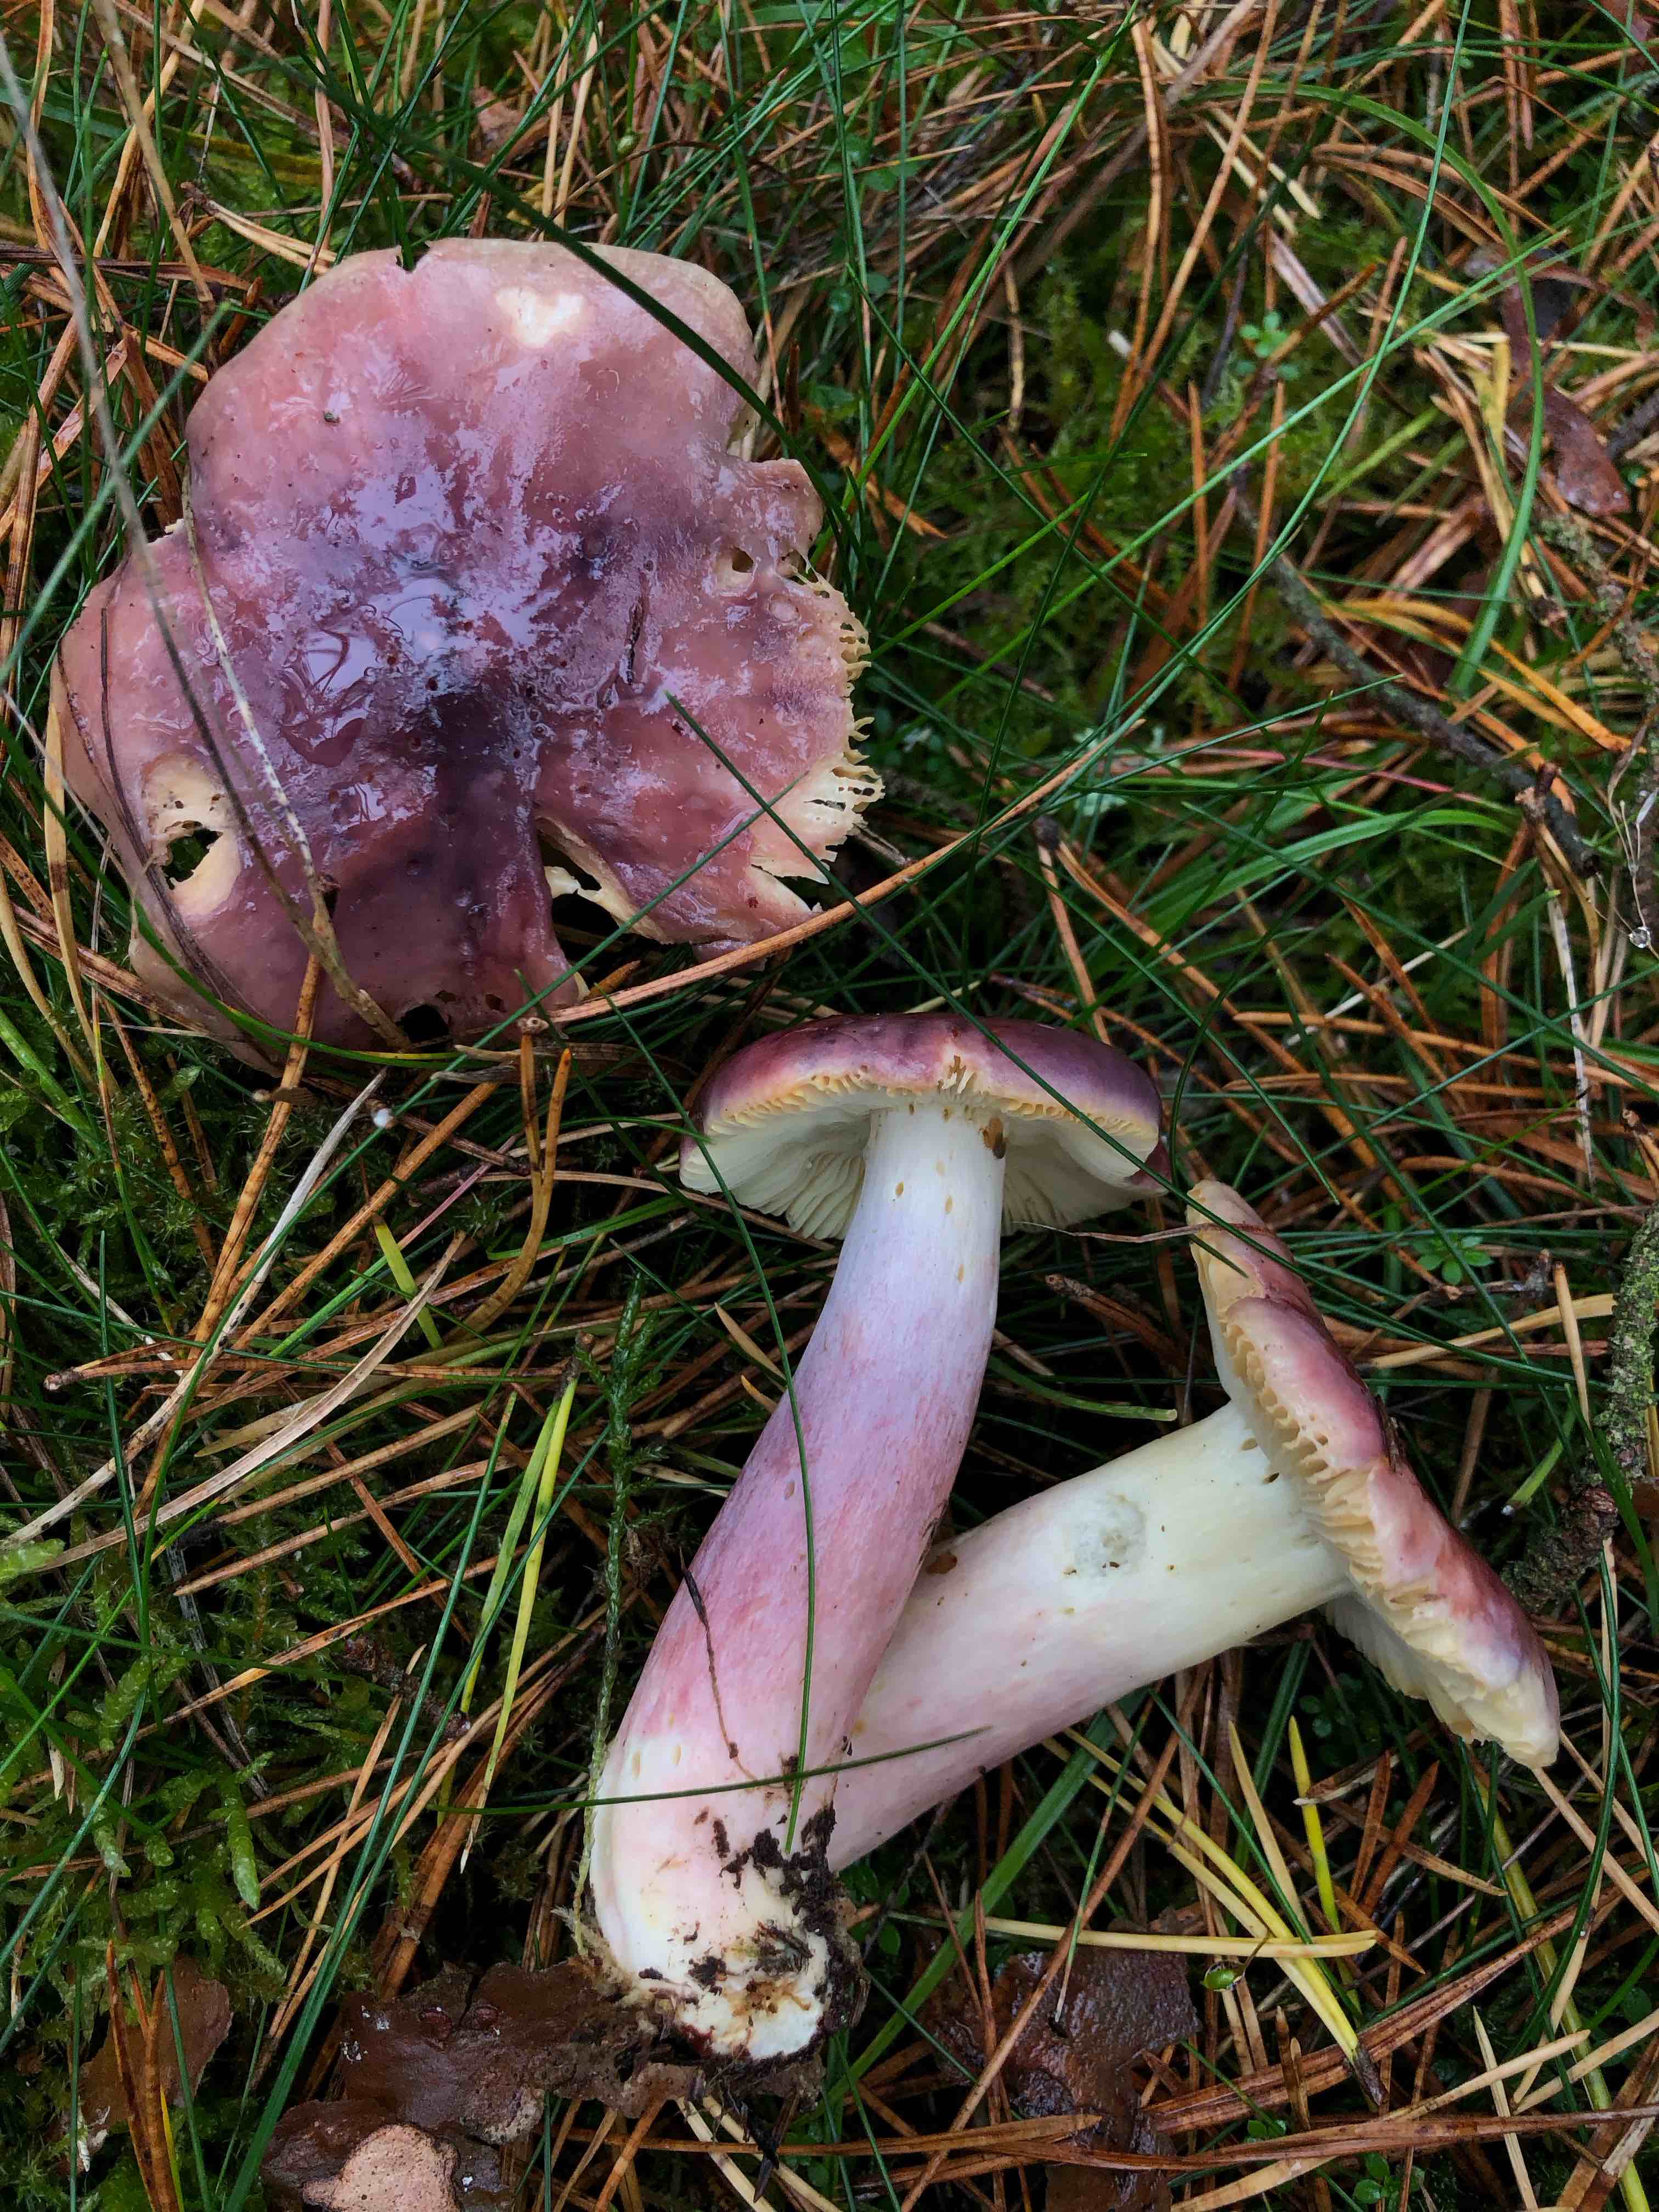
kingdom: Fungi
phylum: Basidiomycota
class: Agaricomycetes
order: Russulales
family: Russulaceae
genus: Russula
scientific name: Russula sardonia
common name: citronbladet skørhat
